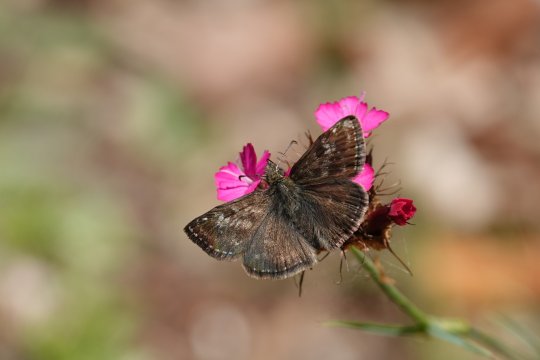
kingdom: Animalia
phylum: Arthropoda
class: Insecta
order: Lepidoptera
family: Hesperiidae
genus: Erynnis
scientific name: Erynnis tages
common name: Dingy Skipper
